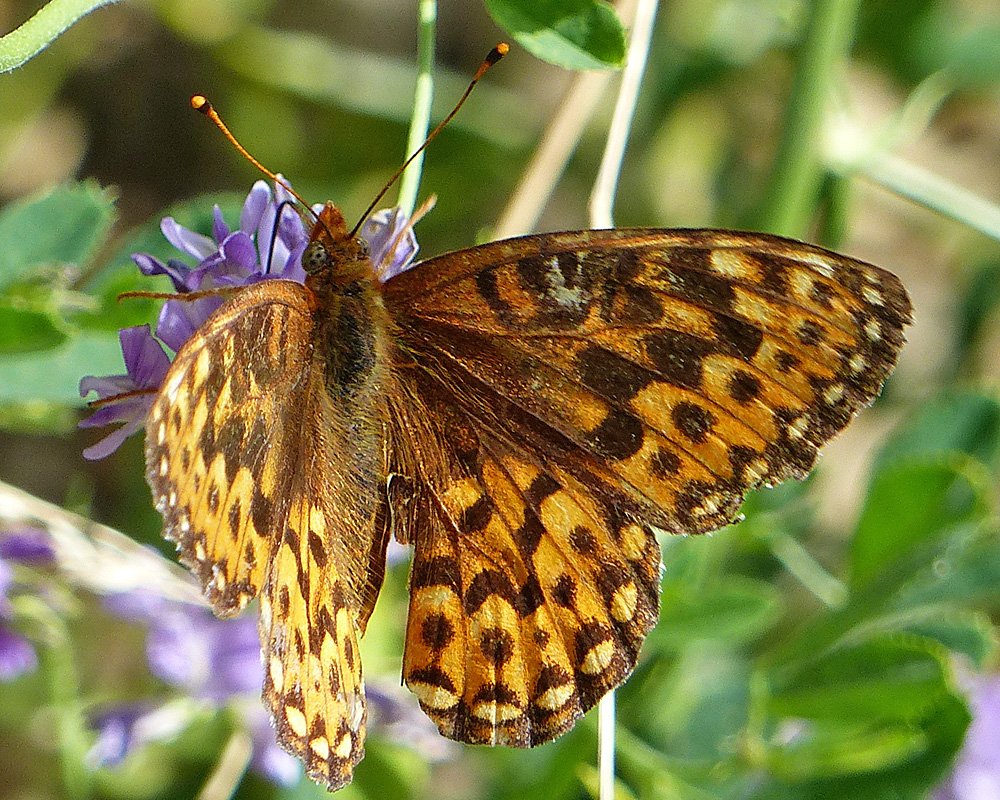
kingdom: Animalia
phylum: Arthropoda
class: Insecta
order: Lepidoptera
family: Nymphalidae
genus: Speyeria
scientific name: Speyeria hydaspe
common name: Hydaspe Fritillary
